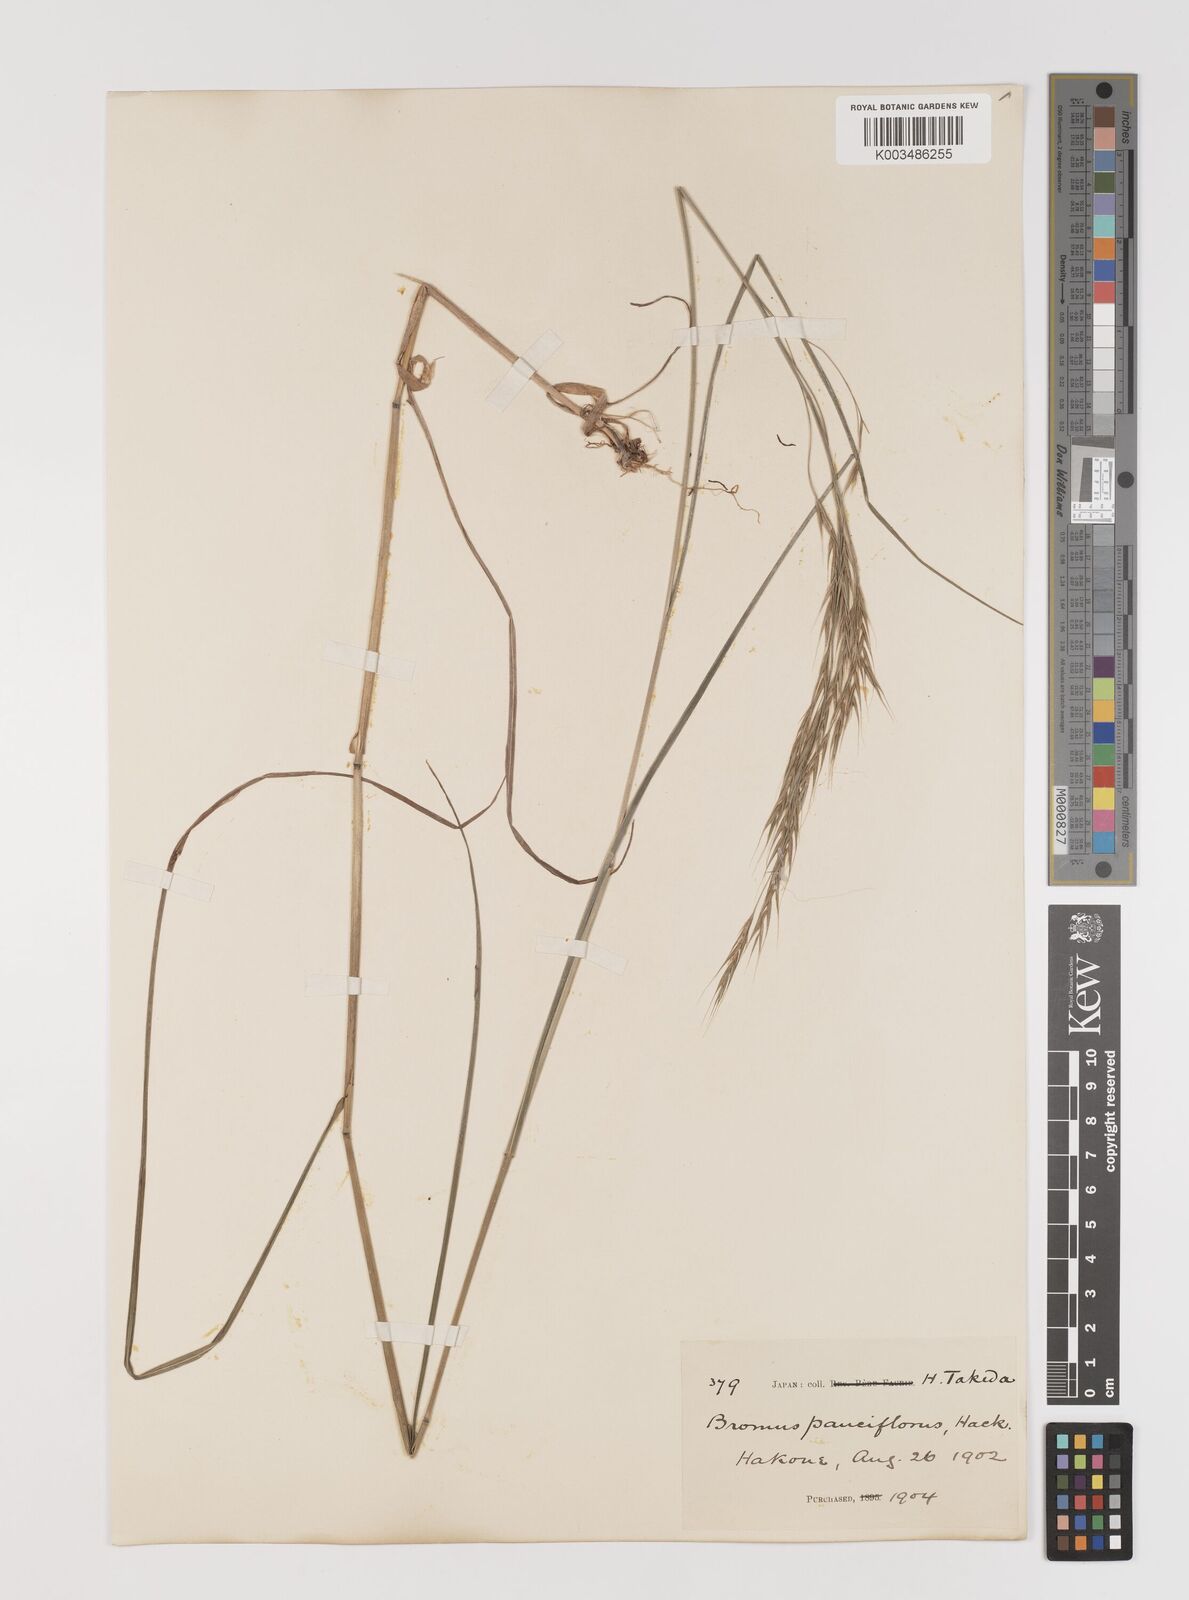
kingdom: Plantae
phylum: Tracheophyta
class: Liliopsida
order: Poales
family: Poaceae
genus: Bromus
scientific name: Bromus remotiflorus
